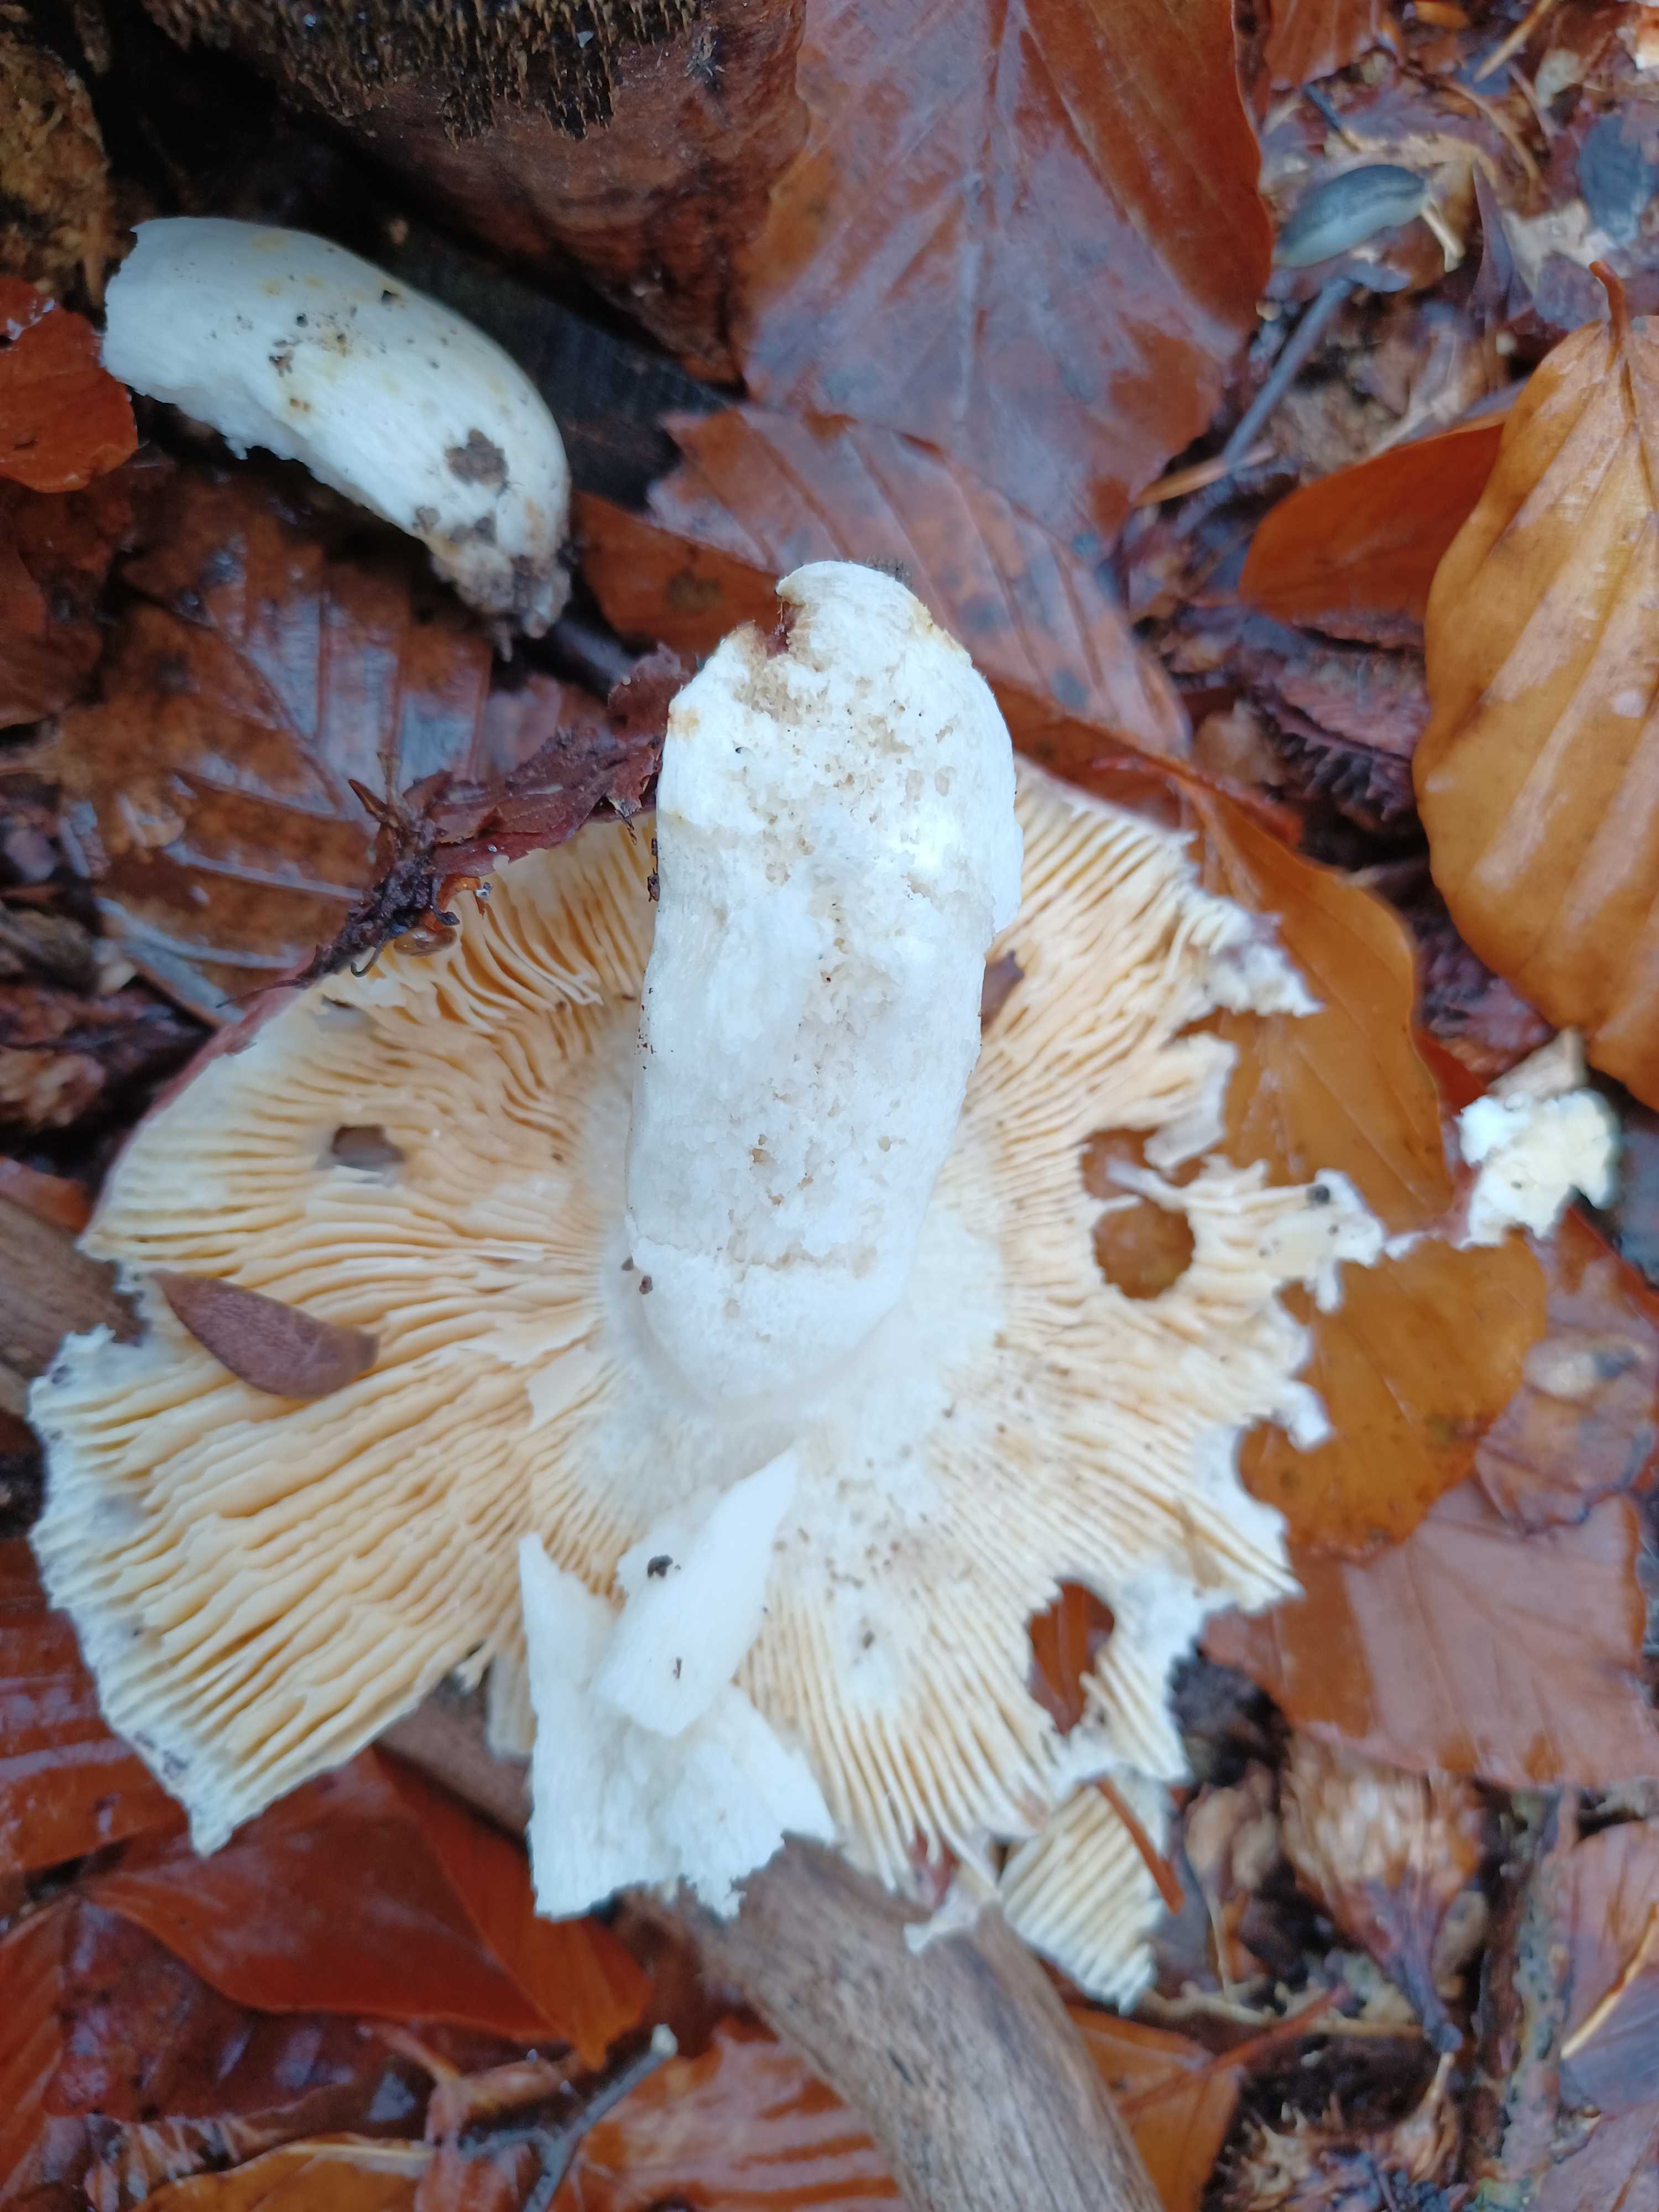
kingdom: Fungi
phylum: Basidiomycota
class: Agaricomycetes
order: Russulales
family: Russulaceae
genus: Russula
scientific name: Russula
